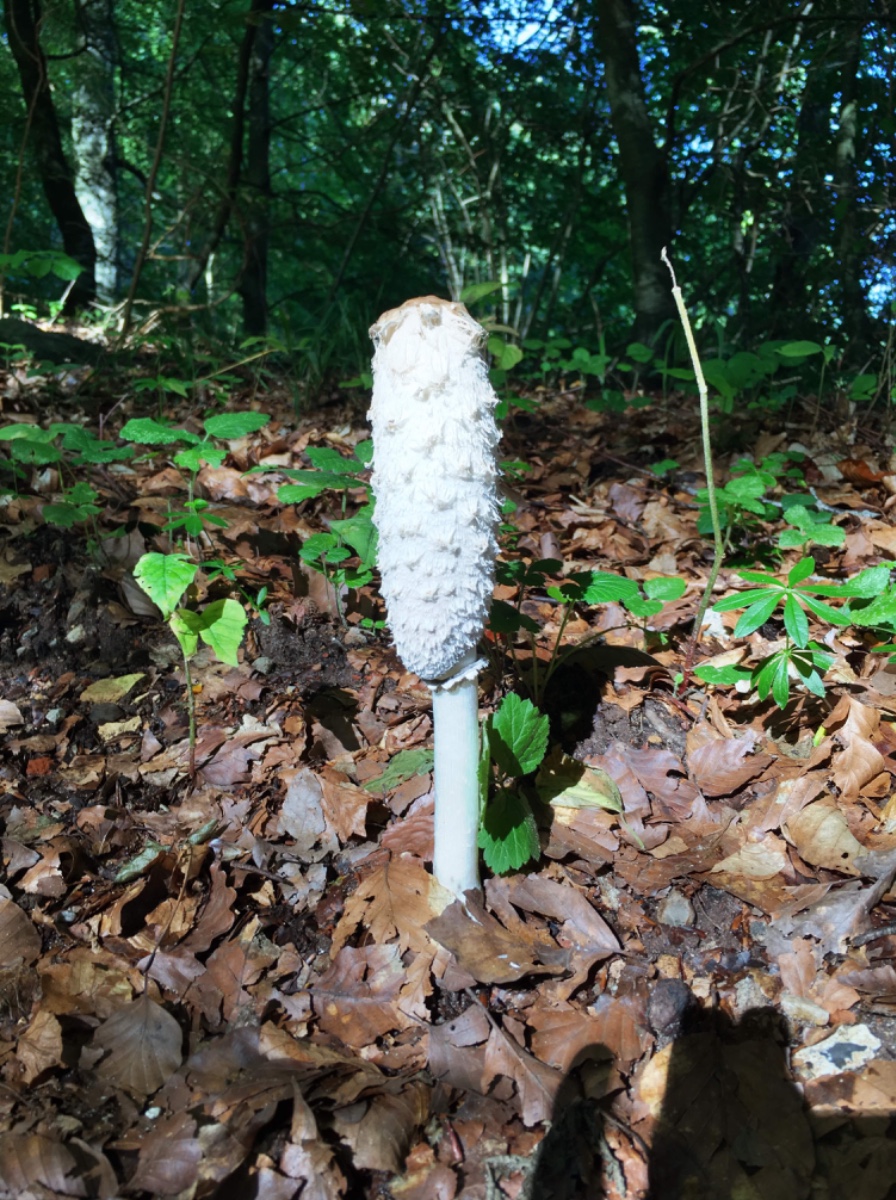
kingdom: Fungi
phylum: Basidiomycota
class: Agaricomycetes
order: Agaricales
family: Agaricaceae
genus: Coprinus
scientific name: Coprinus comatus
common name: stor parykhat
